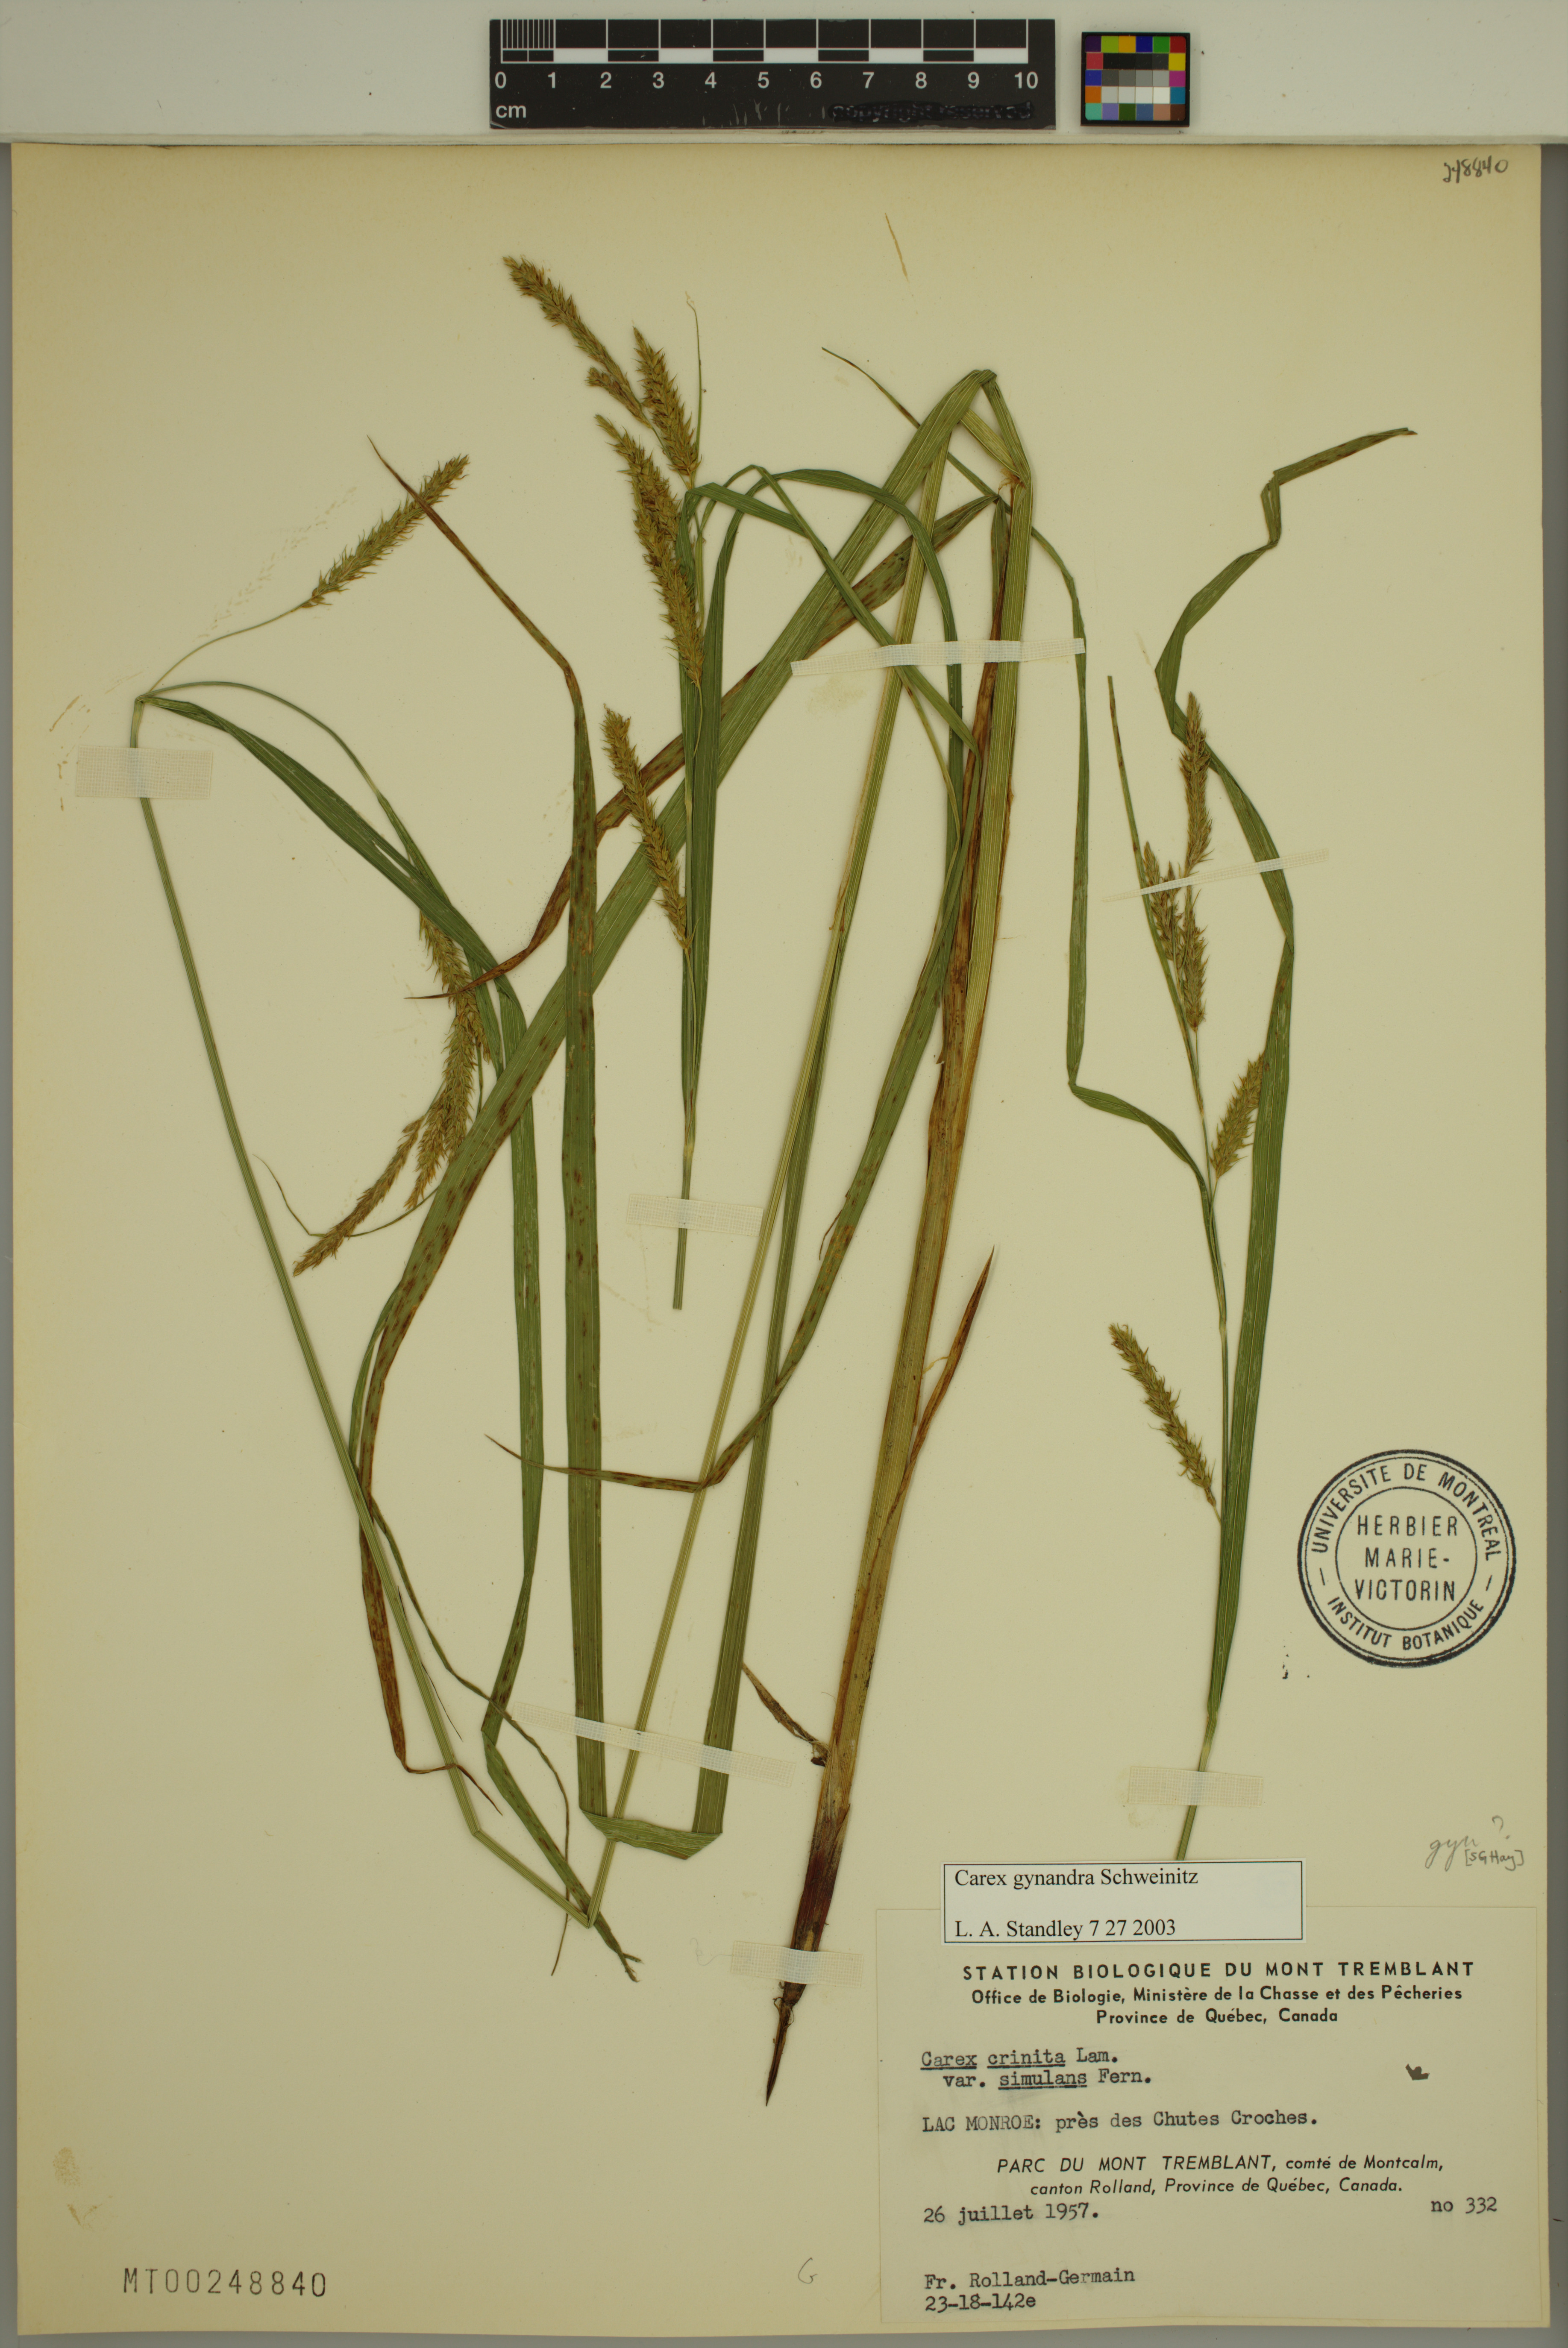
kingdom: Plantae
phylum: Tracheophyta
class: Liliopsida
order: Poales
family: Cyperaceae
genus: Carex
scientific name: Carex gynandra
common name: Nodding sedge
